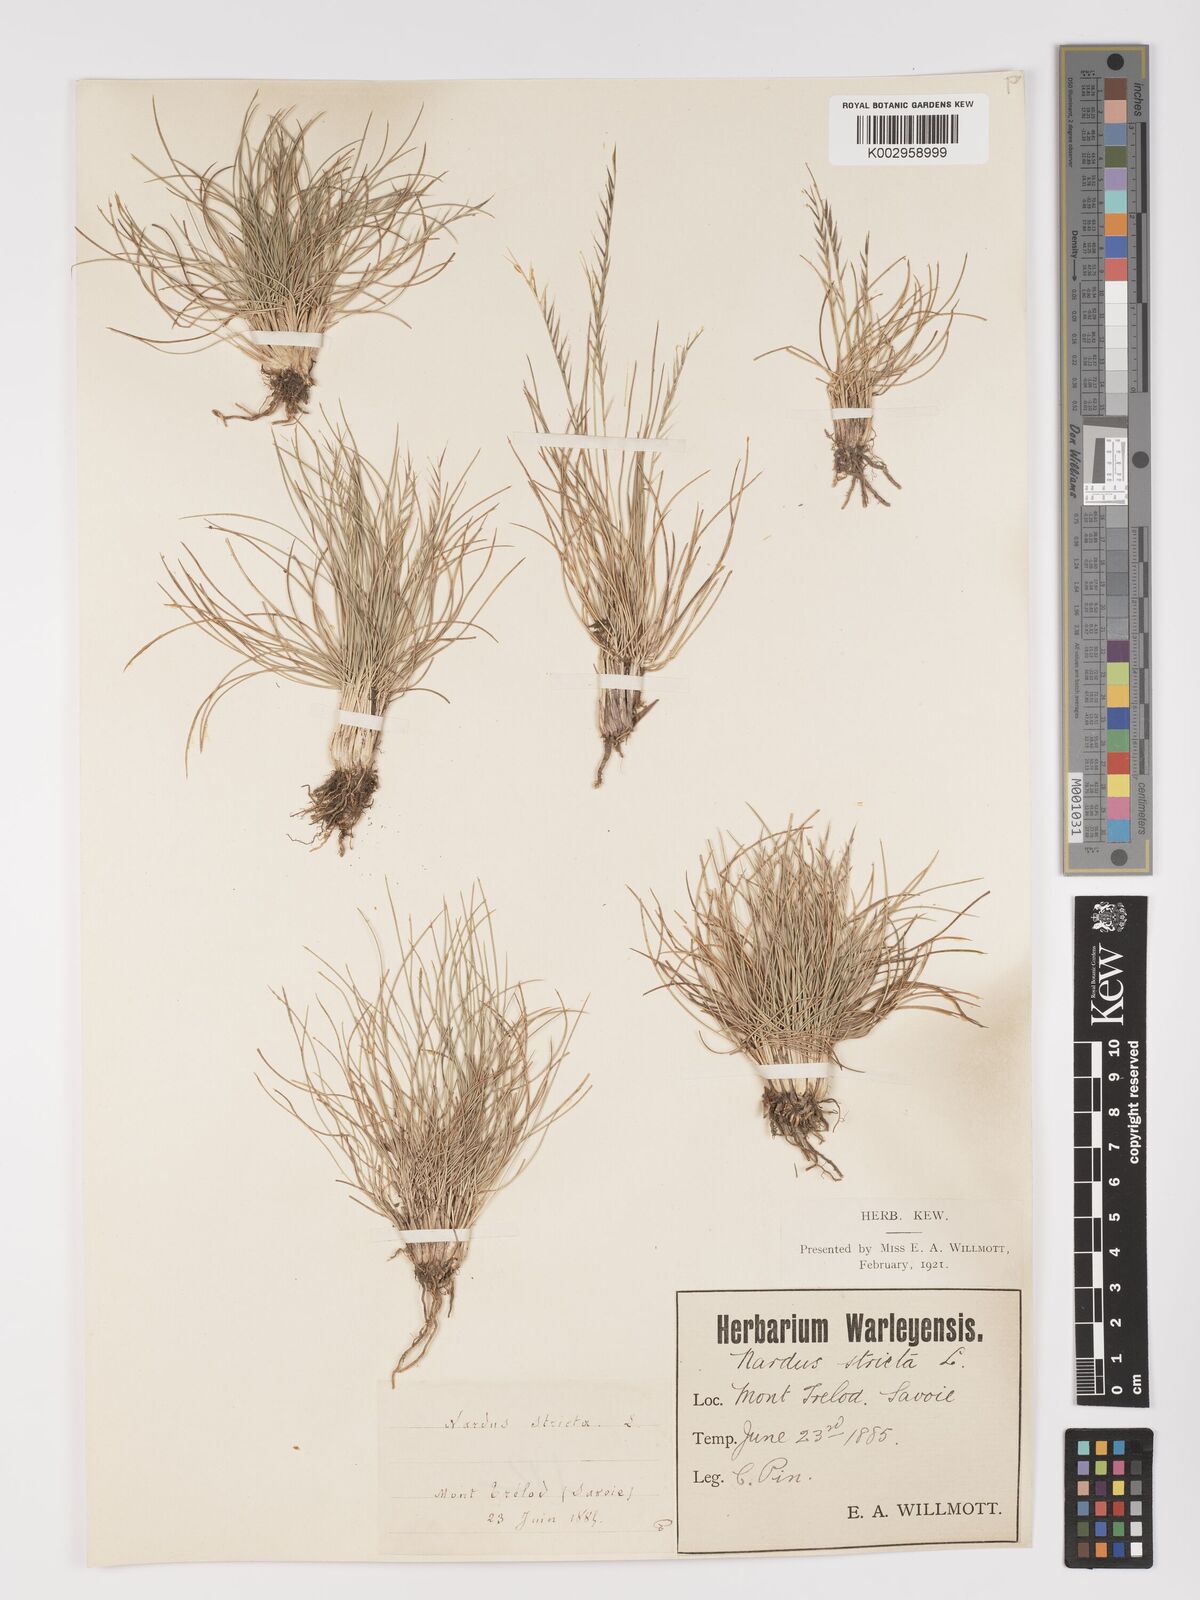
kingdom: Plantae
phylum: Tracheophyta
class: Liliopsida
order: Poales
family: Poaceae
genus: Nardus
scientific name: Nardus stricta
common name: Mat-grass
